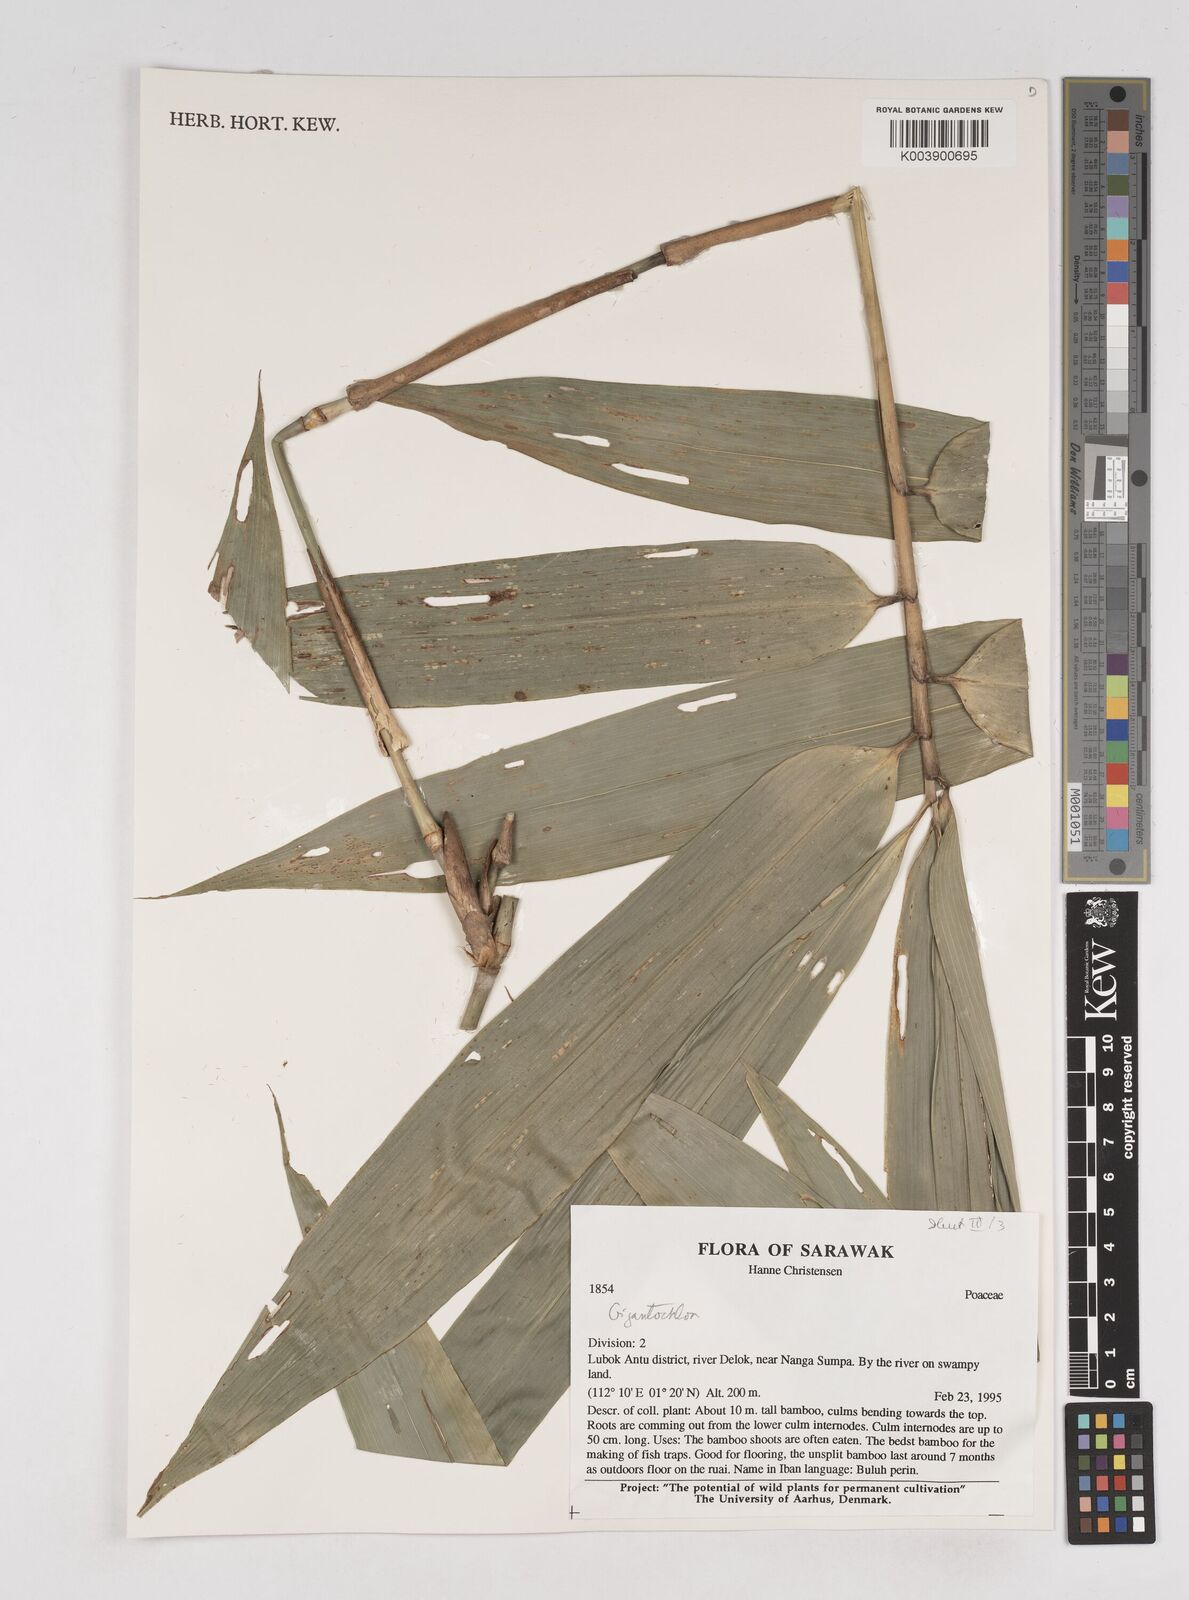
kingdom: Plantae
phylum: Tracheophyta
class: Liliopsida
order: Poales
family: Poaceae
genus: Gigantochloa
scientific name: Gigantochloa
